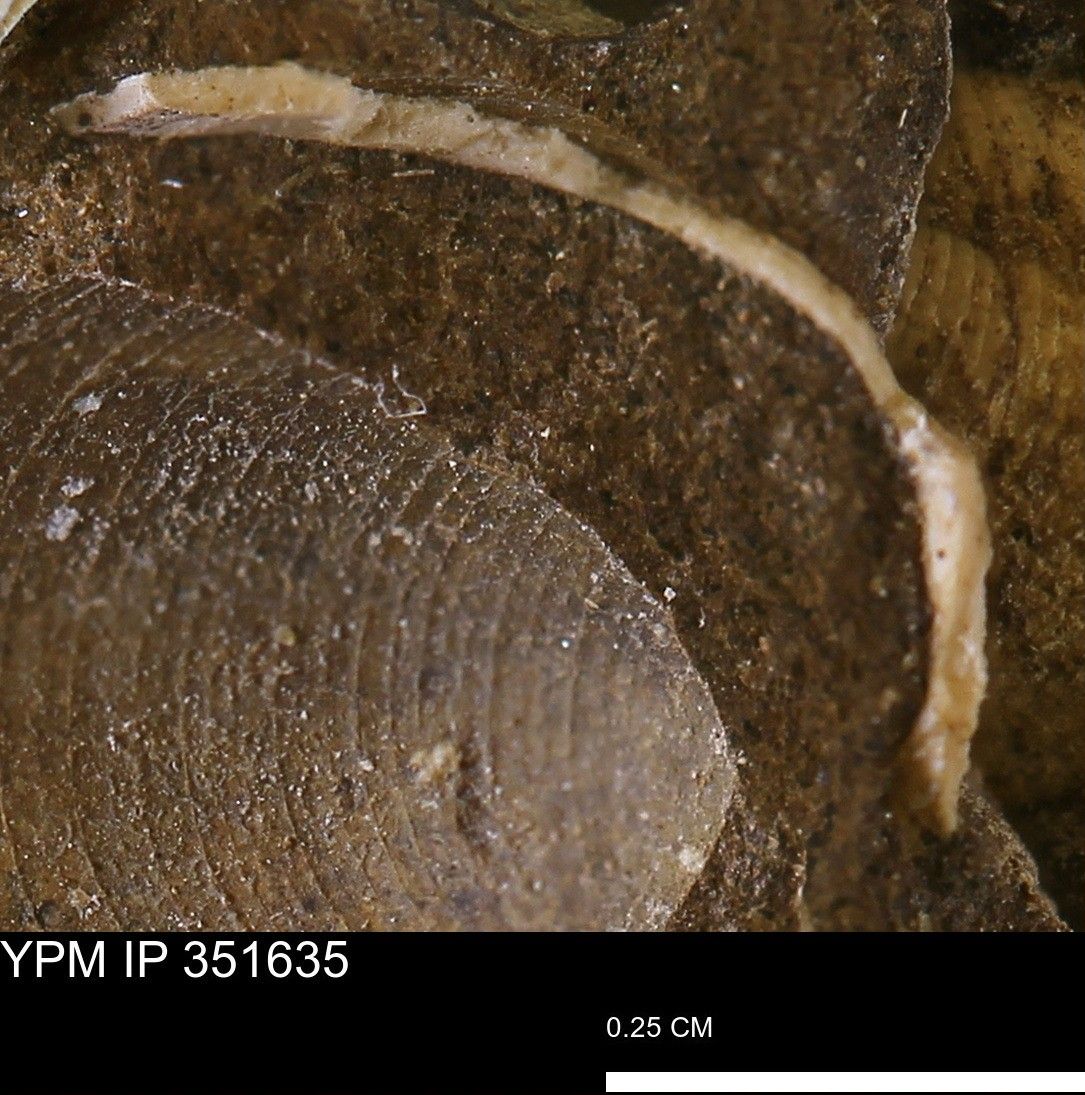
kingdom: Animalia
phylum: Mollusca
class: Bivalvia
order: Arcida
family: Limopsidae
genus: Limopsis
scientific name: Limopsis
